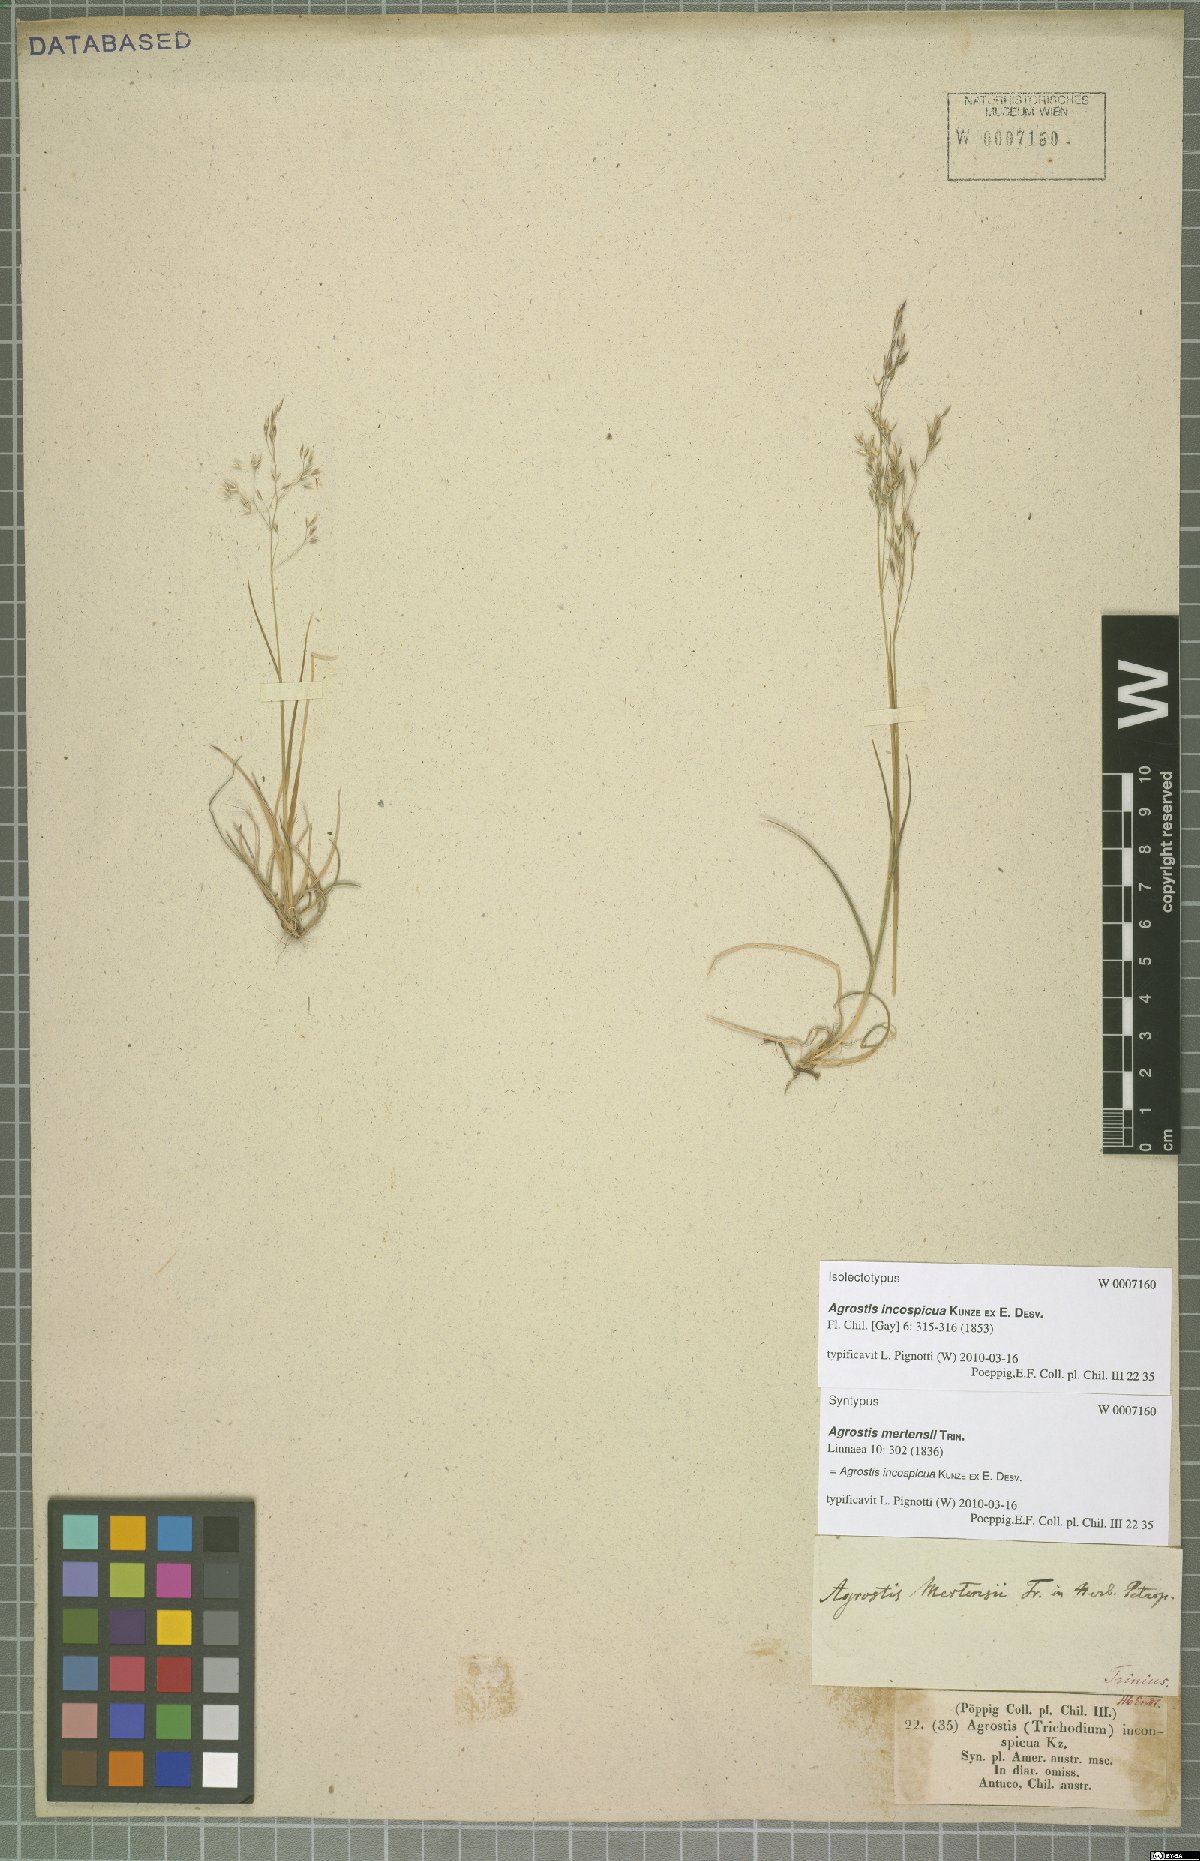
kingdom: Plantae
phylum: Tracheophyta
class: Liliopsida
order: Poales
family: Poaceae
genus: Agrostis
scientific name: Agrostis inconspicua
